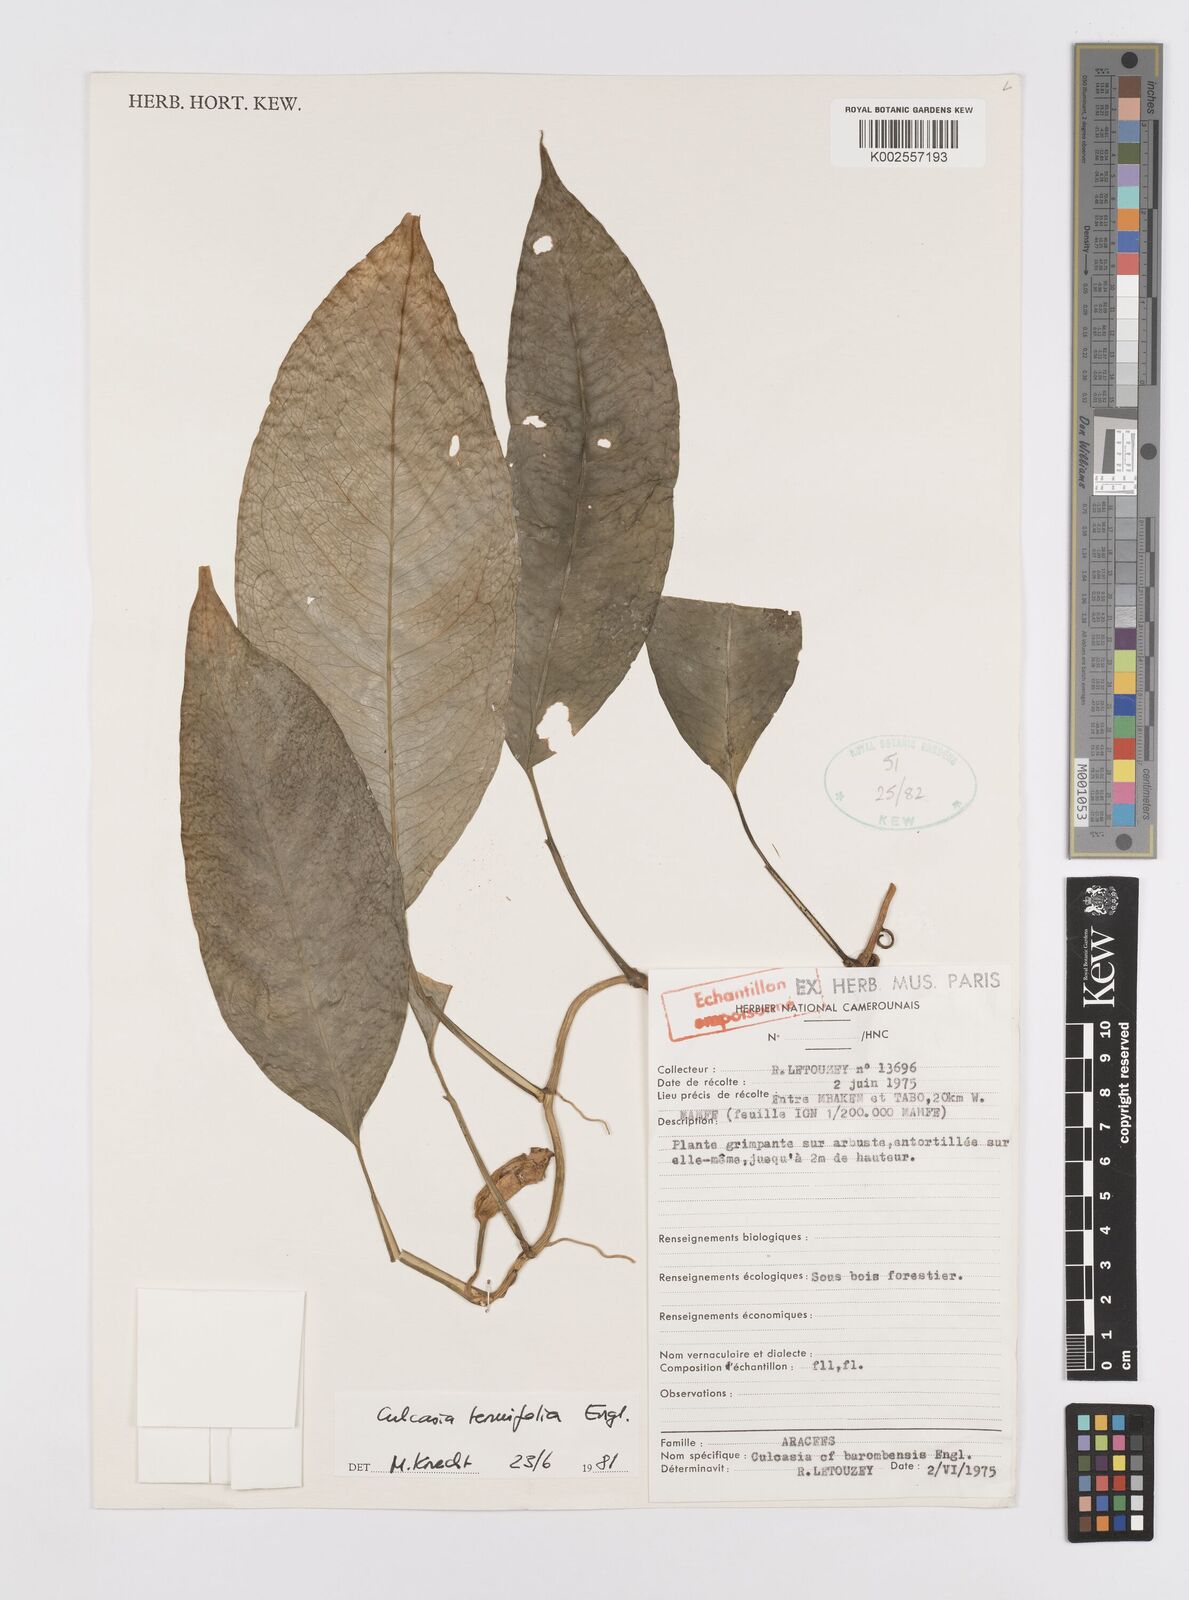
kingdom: Plantae
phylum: Tracheophyta
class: Liliopsida
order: Alismatales
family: Araceae
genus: Culcasia
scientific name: Culcasia tenuifolia
